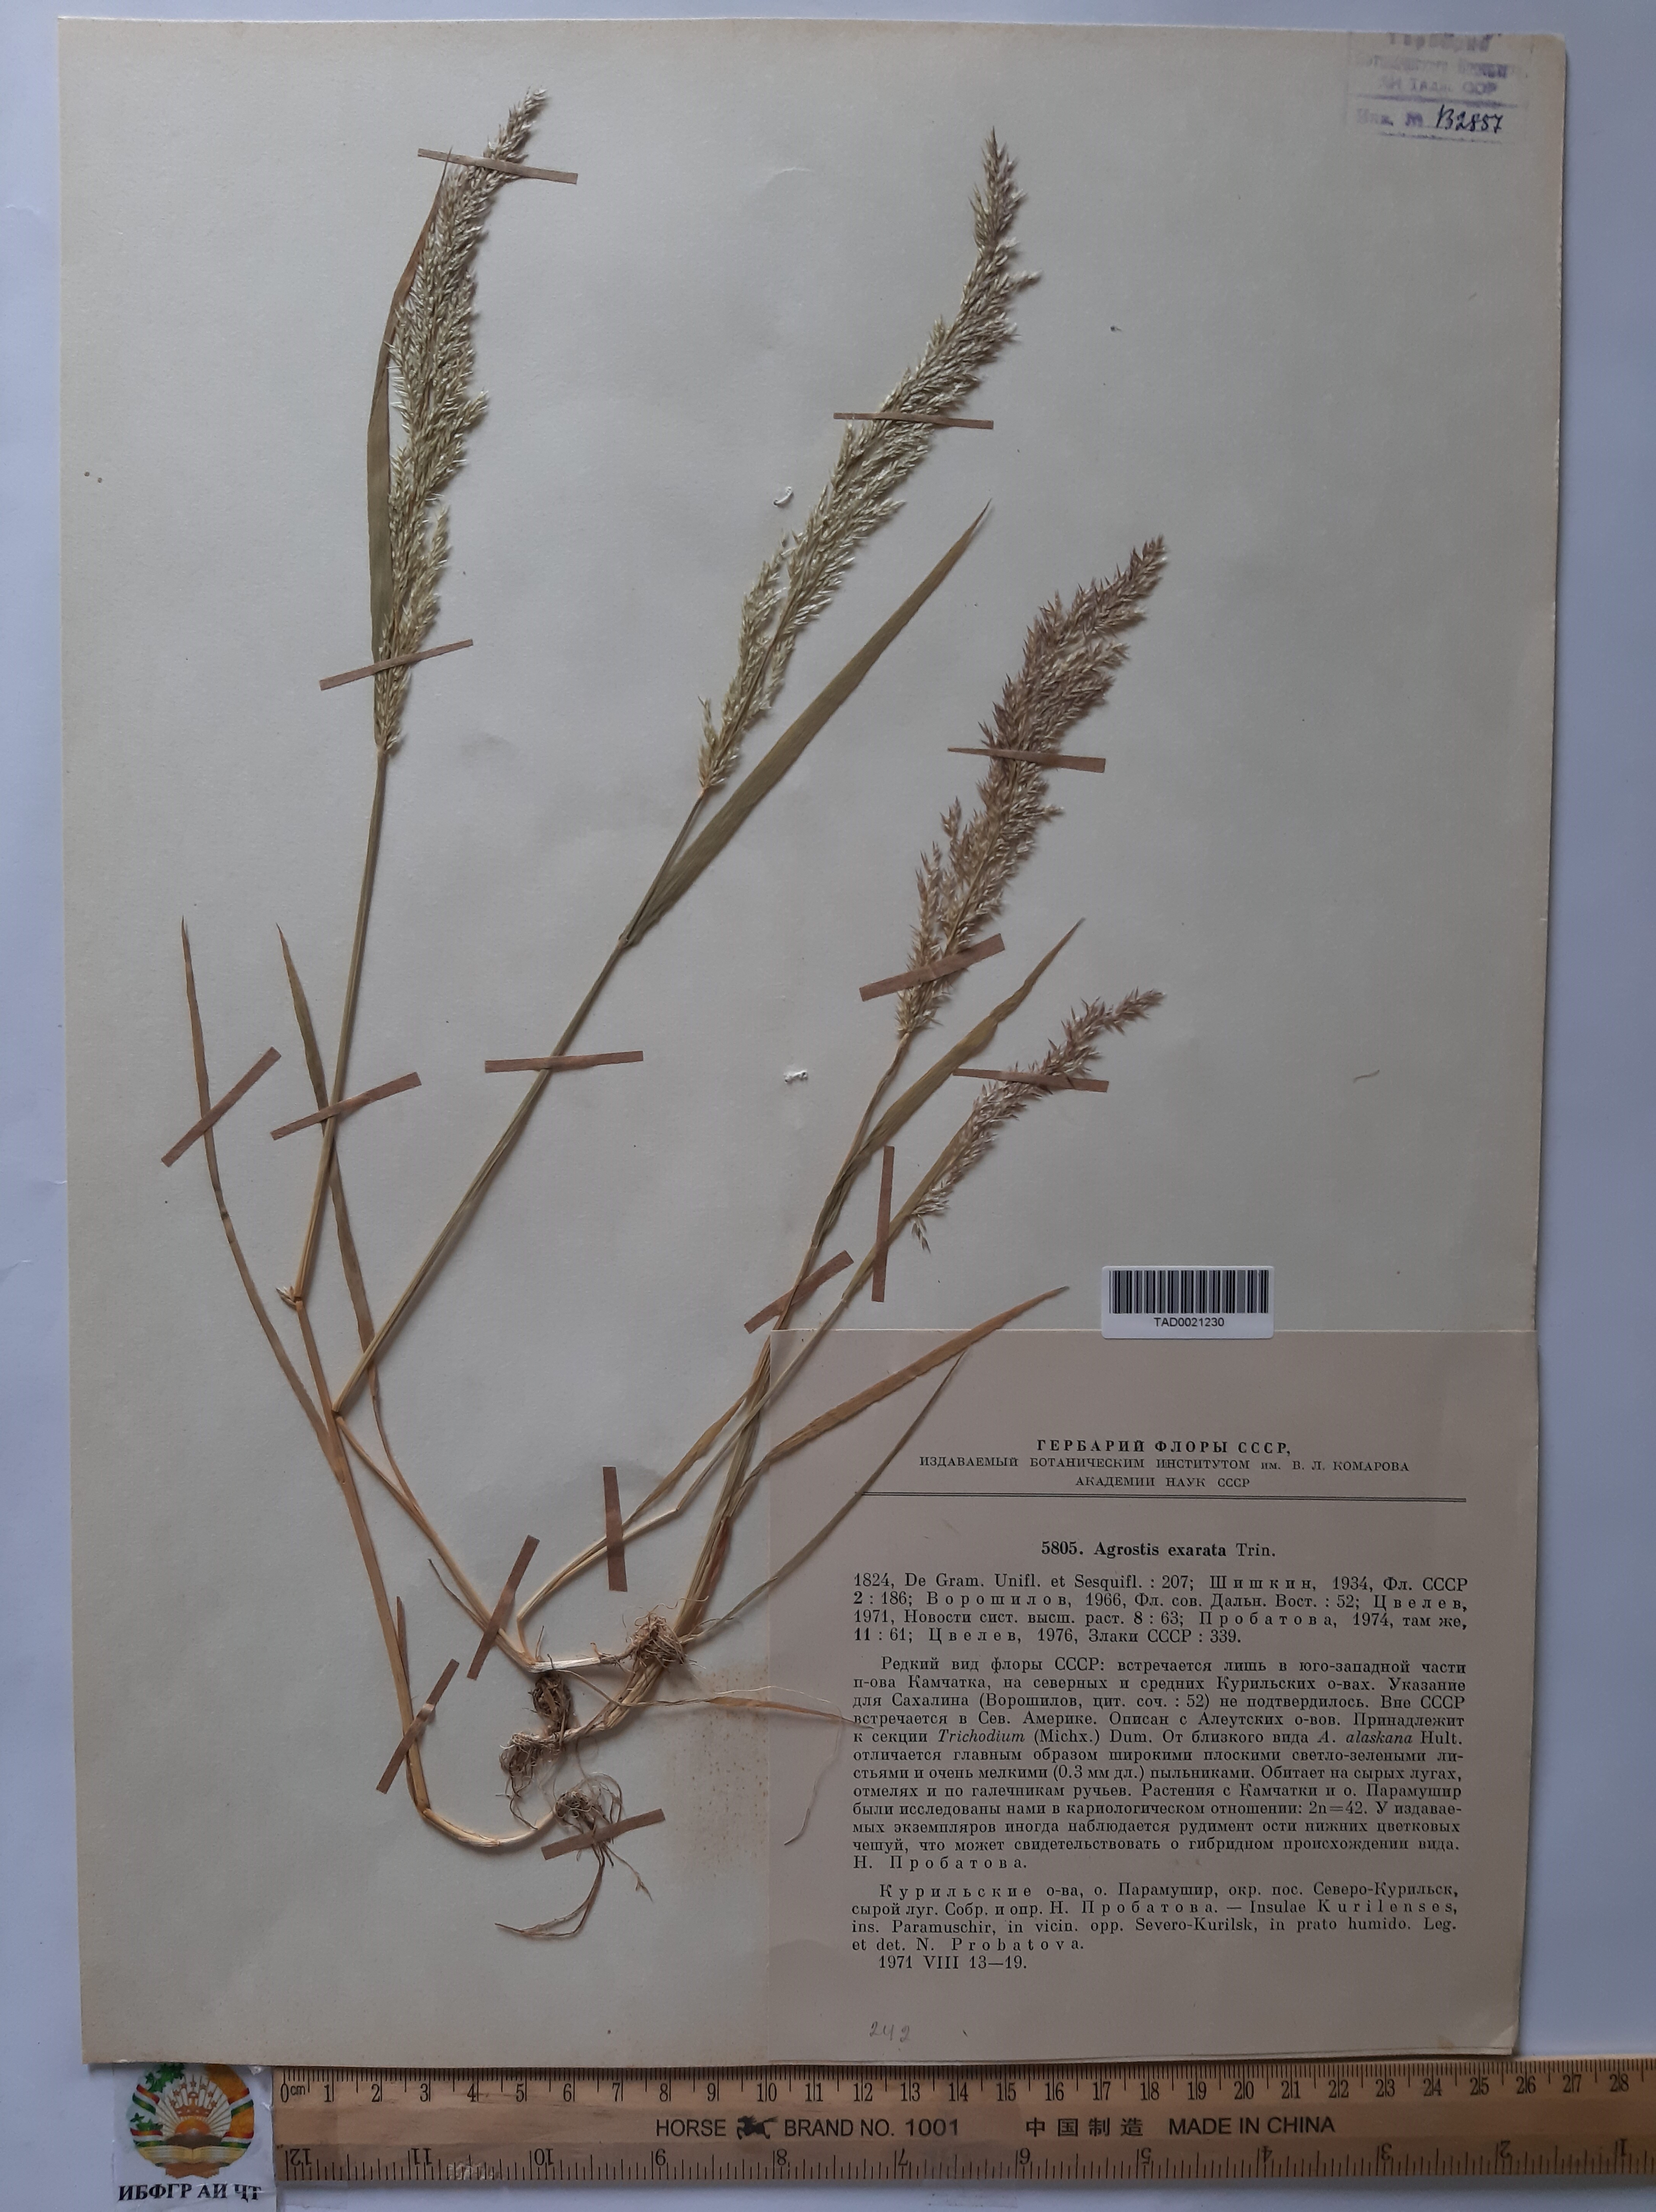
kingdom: Plantae
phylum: Tracheophyta
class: Liliopsida
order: Poales
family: Poaceae
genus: Agrostis
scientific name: Agrostis exarata
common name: Spike bent
